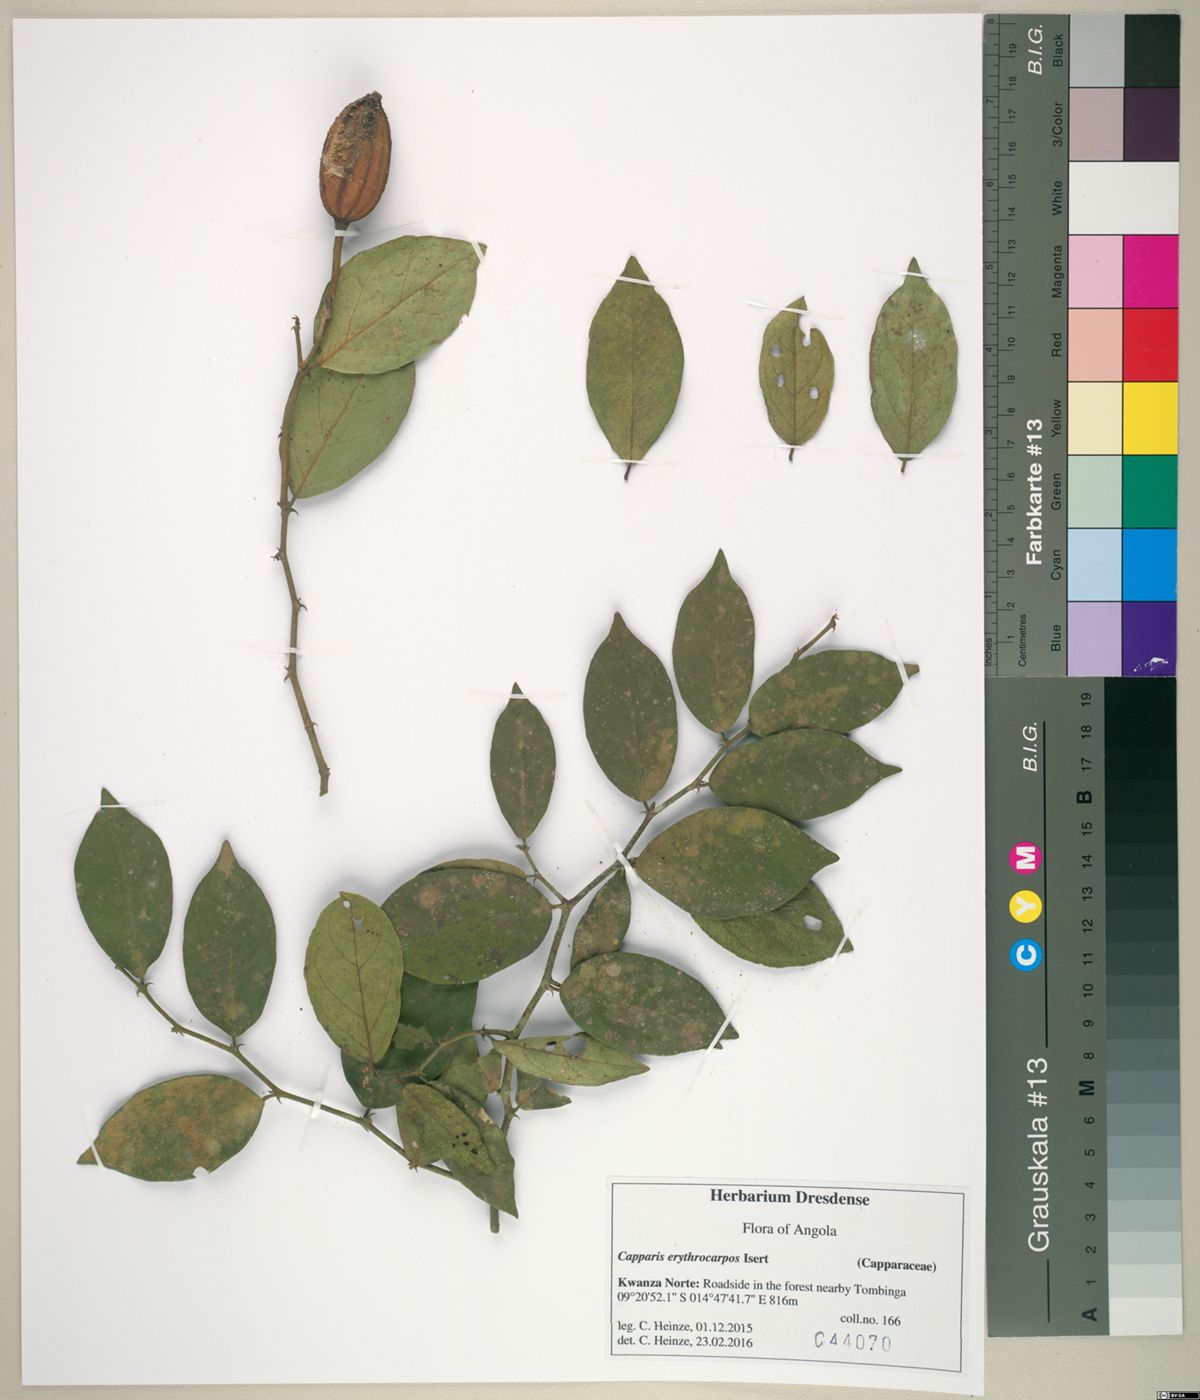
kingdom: Plantae
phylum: Tracheophyta
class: Magnoliopsida
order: Brassicales
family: Capparaceae
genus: Capparis
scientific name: Capparis erythrocarpos
